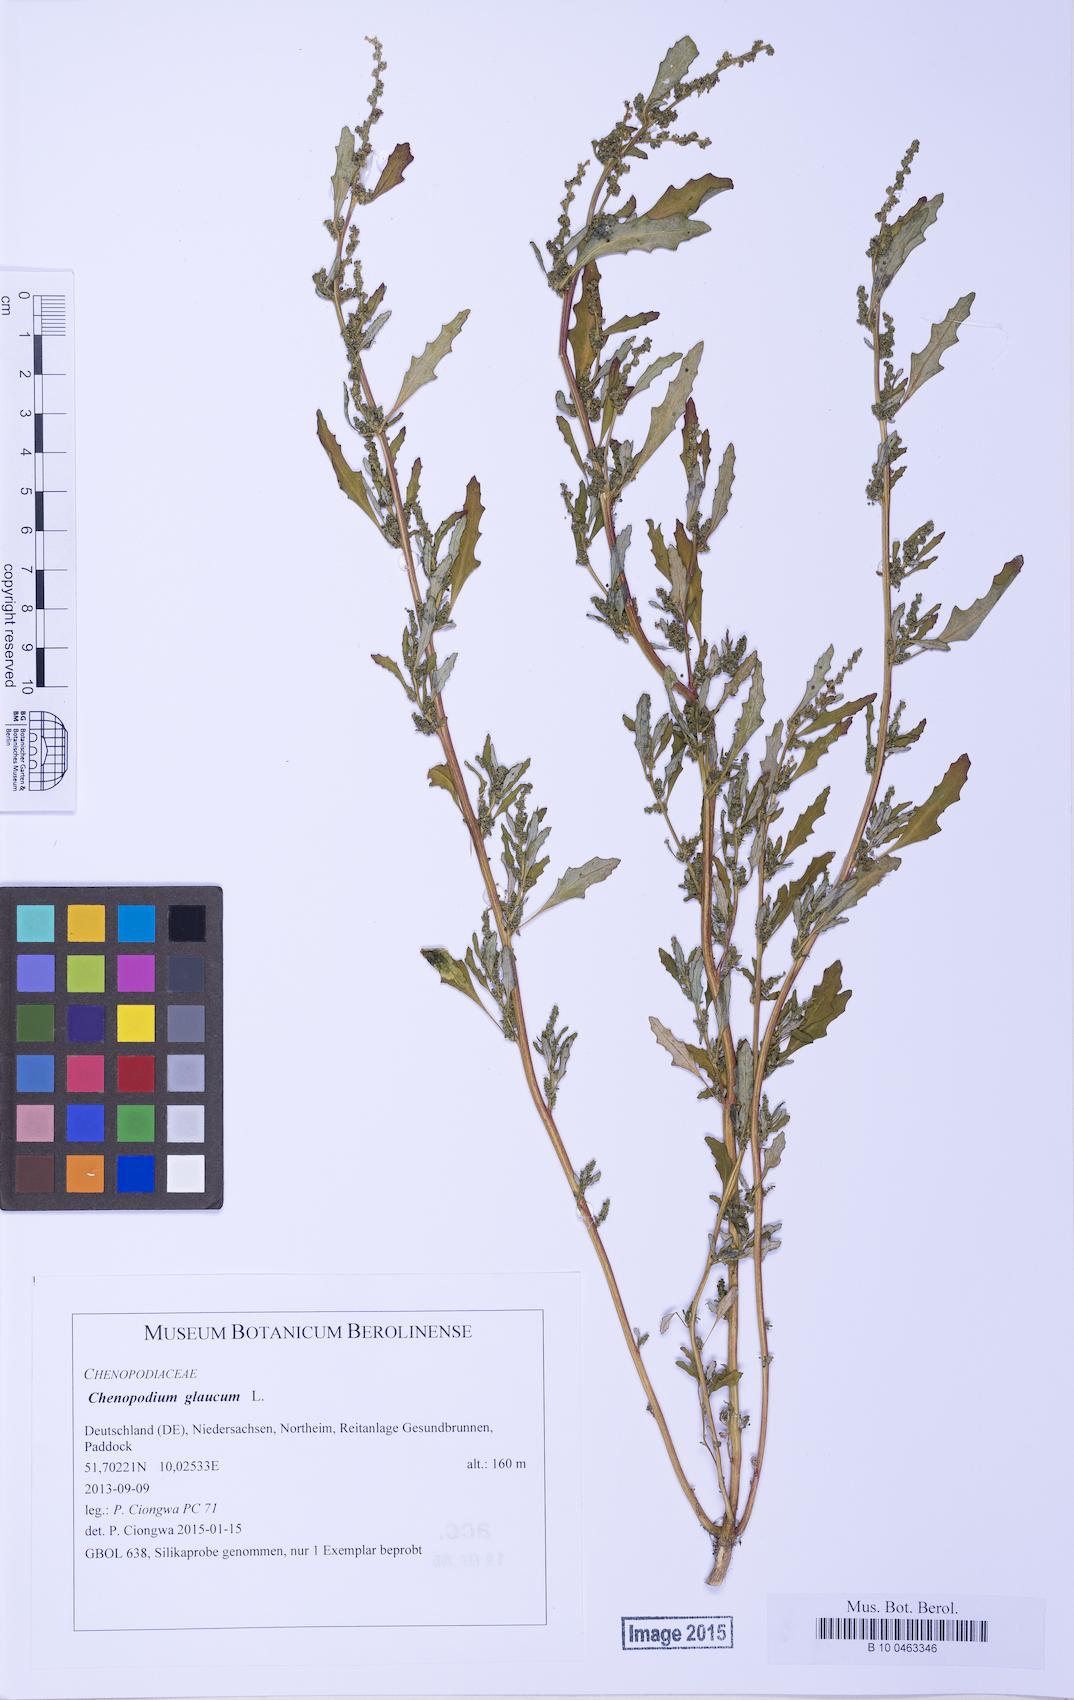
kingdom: Plantae
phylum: Tracheophyta
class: Magnoliopsida
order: Caryophyllales
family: Amaranthaceae
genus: Oxybasis
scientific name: Oxybasis glauca
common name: Glaucous goosefoot
